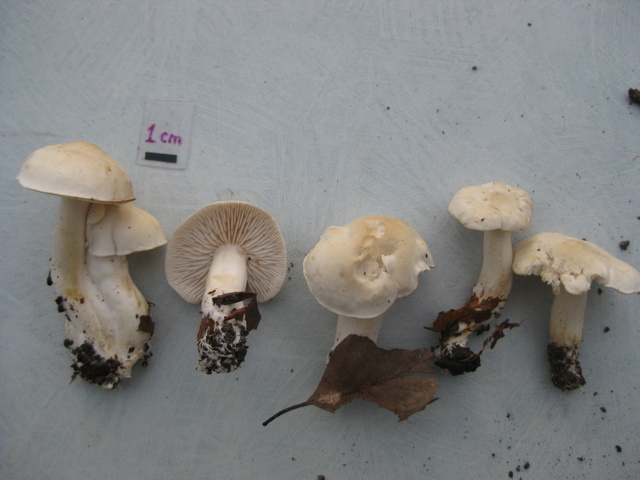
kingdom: Fungi
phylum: Basidiomycota
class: Agaricomycetes
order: Agaricales
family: Tricholomataceae
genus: Tricholoma
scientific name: Tricholoma lascivum
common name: stinkende ridderhat
